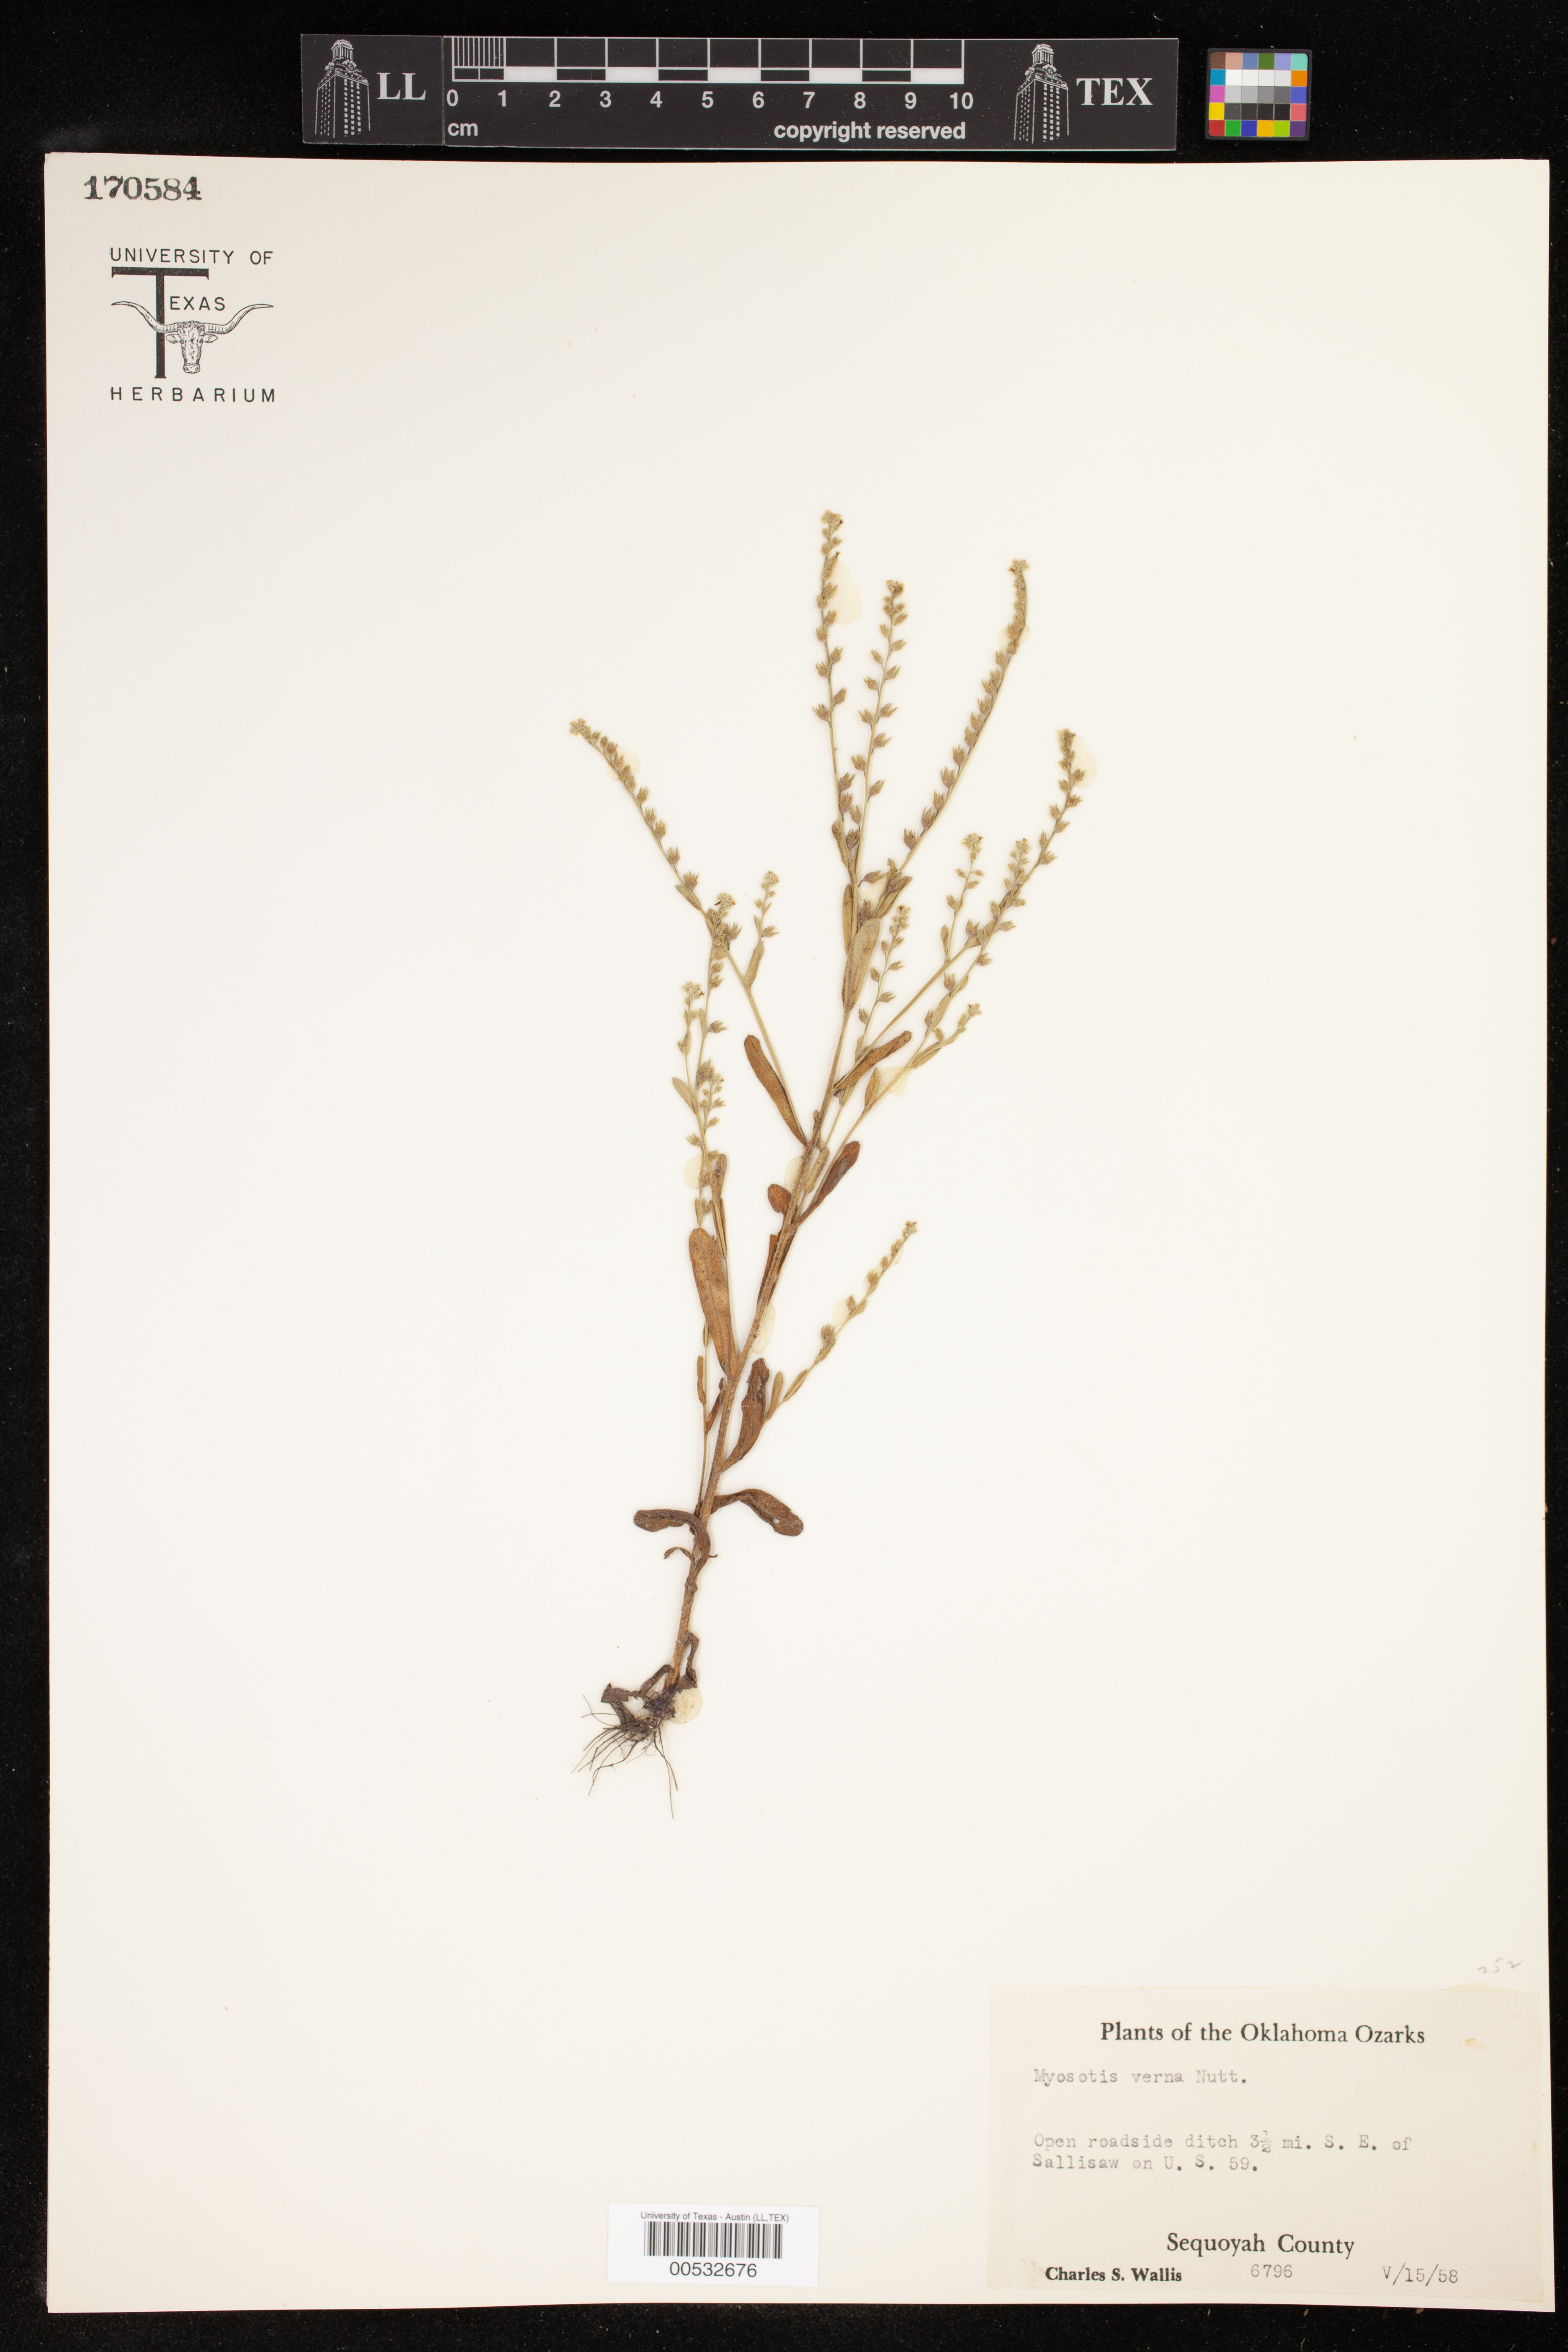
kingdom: Plantae
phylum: Tracheophyta
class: Magnoliopsida
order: Boraginales
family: Boraginaceae
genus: Myosotis
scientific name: Myosotis verna
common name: Early forget-me-not
